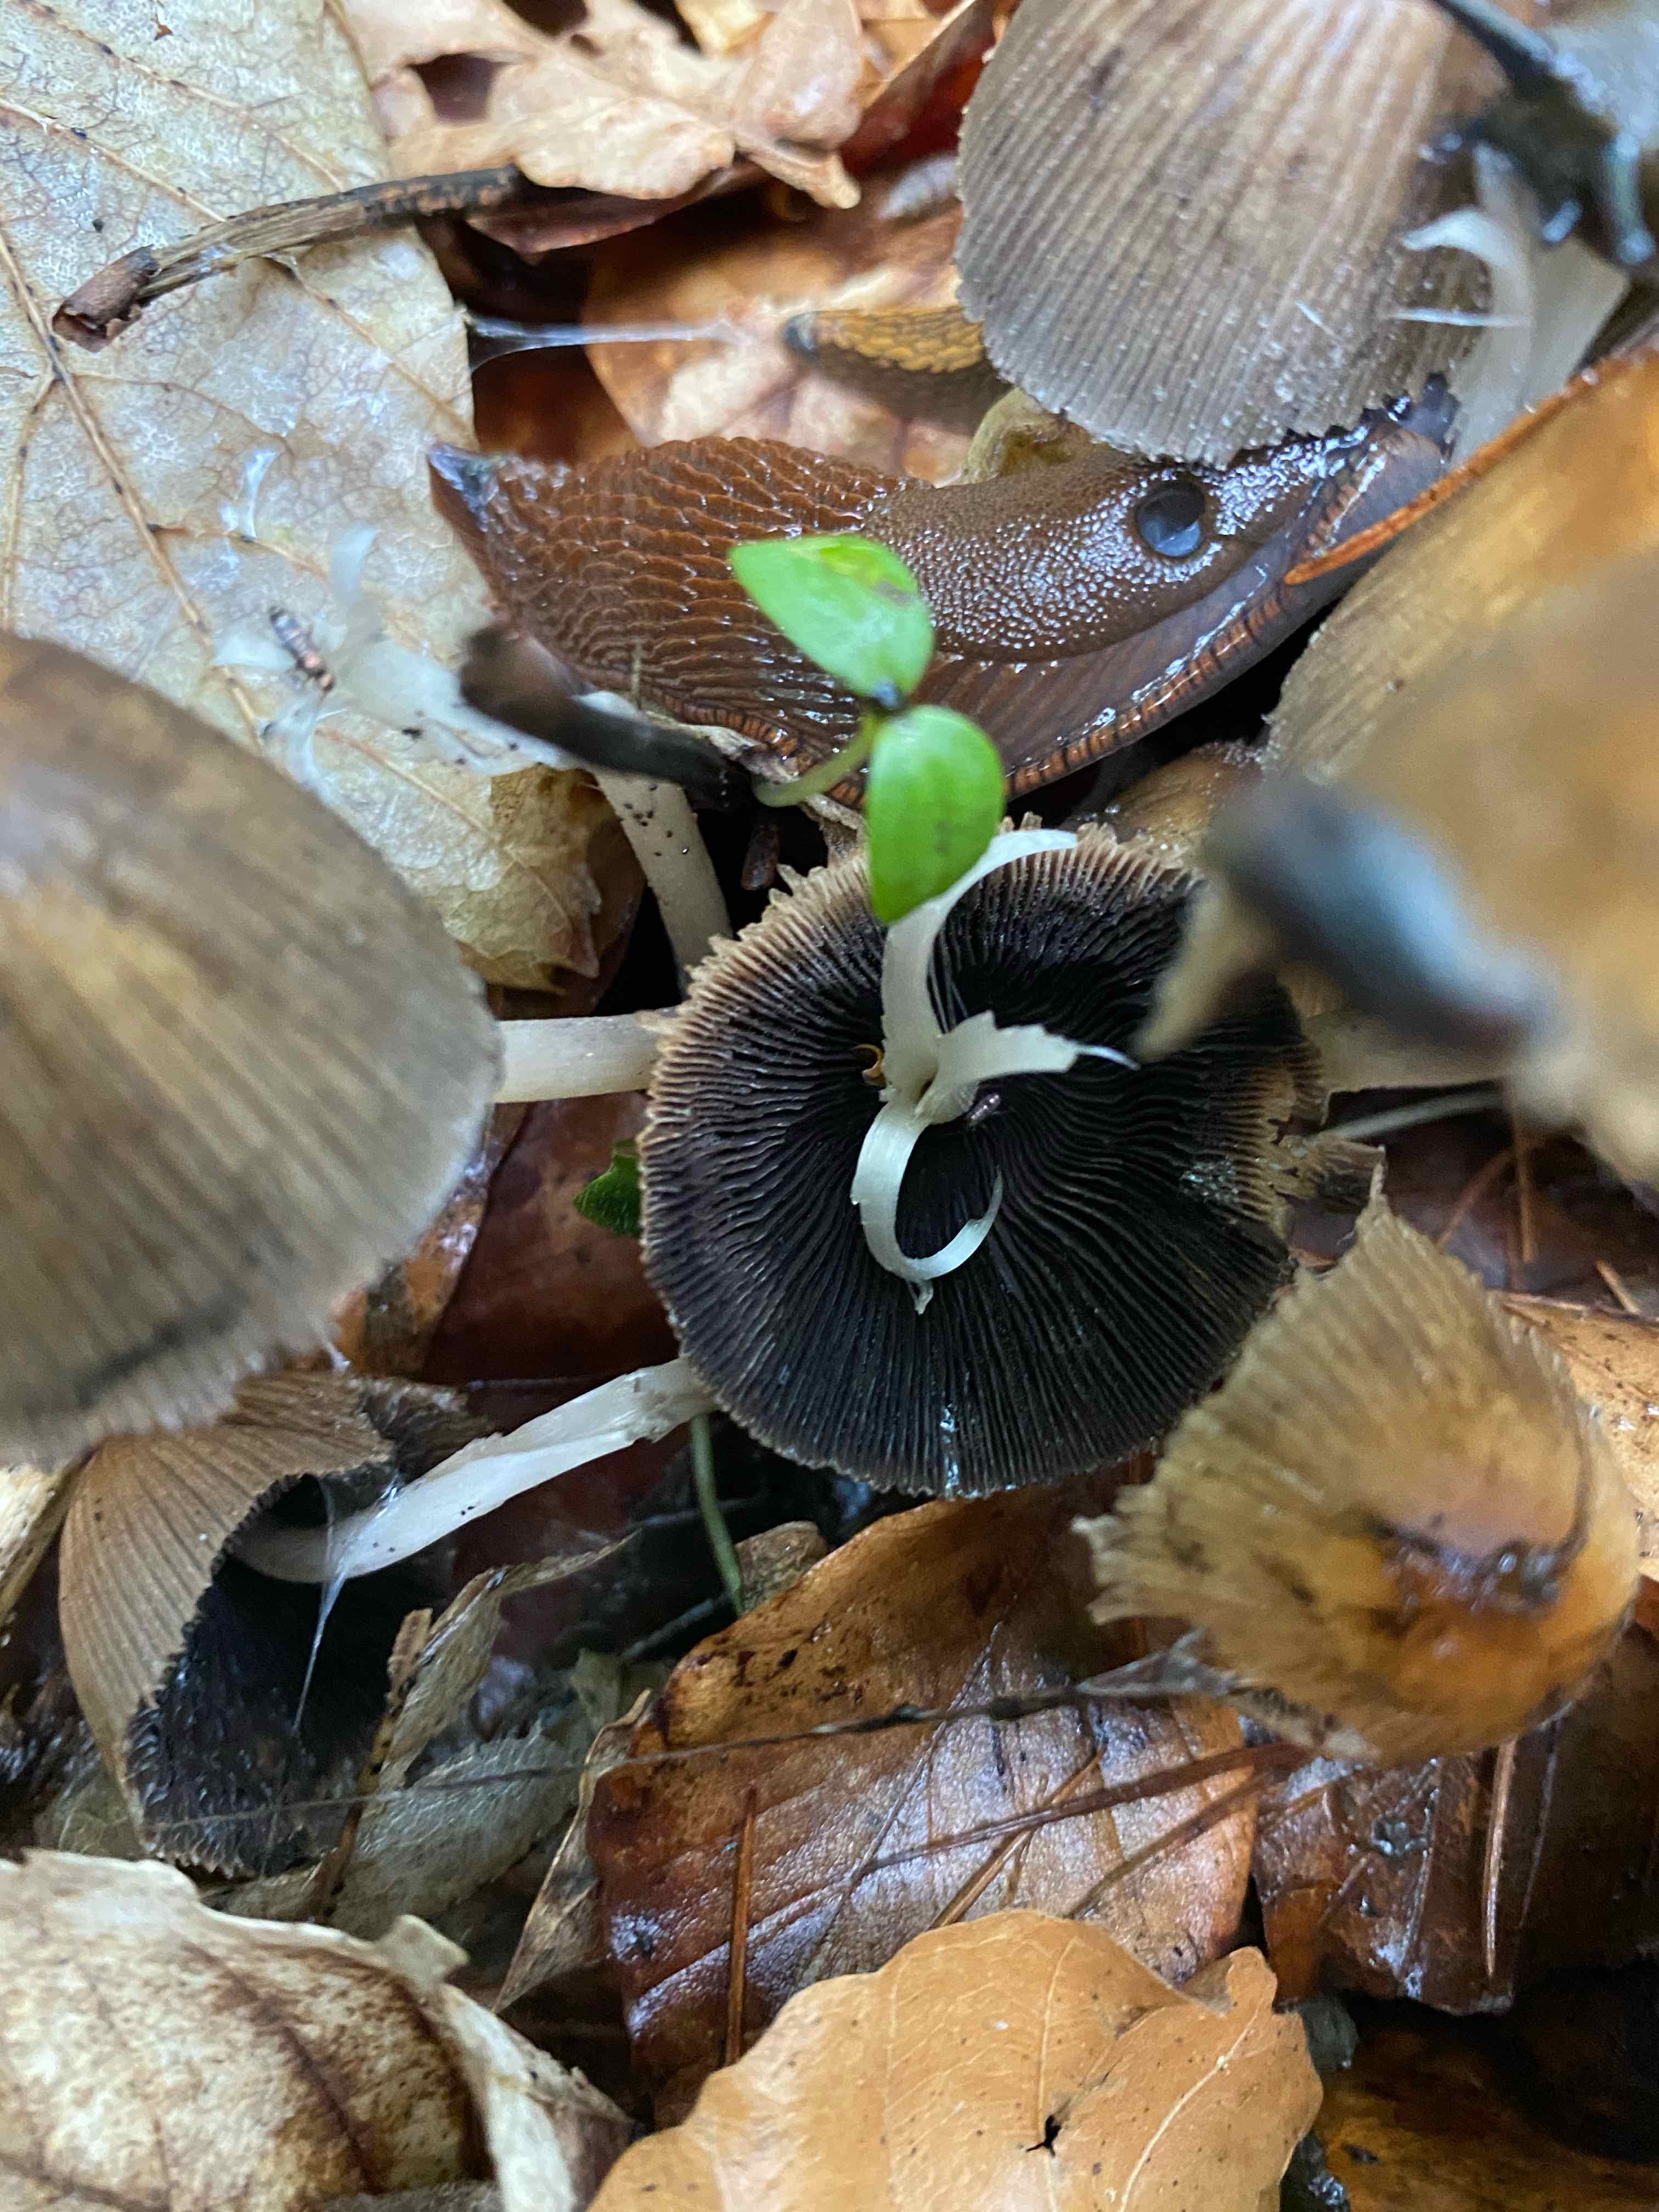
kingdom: Fungi
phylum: Basidiomycota
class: Agaricomycetes
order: Agaricales
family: Psathyrellaceae
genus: Coprinellus
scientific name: Coprinellus micaceus
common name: glimmer-blækhat
